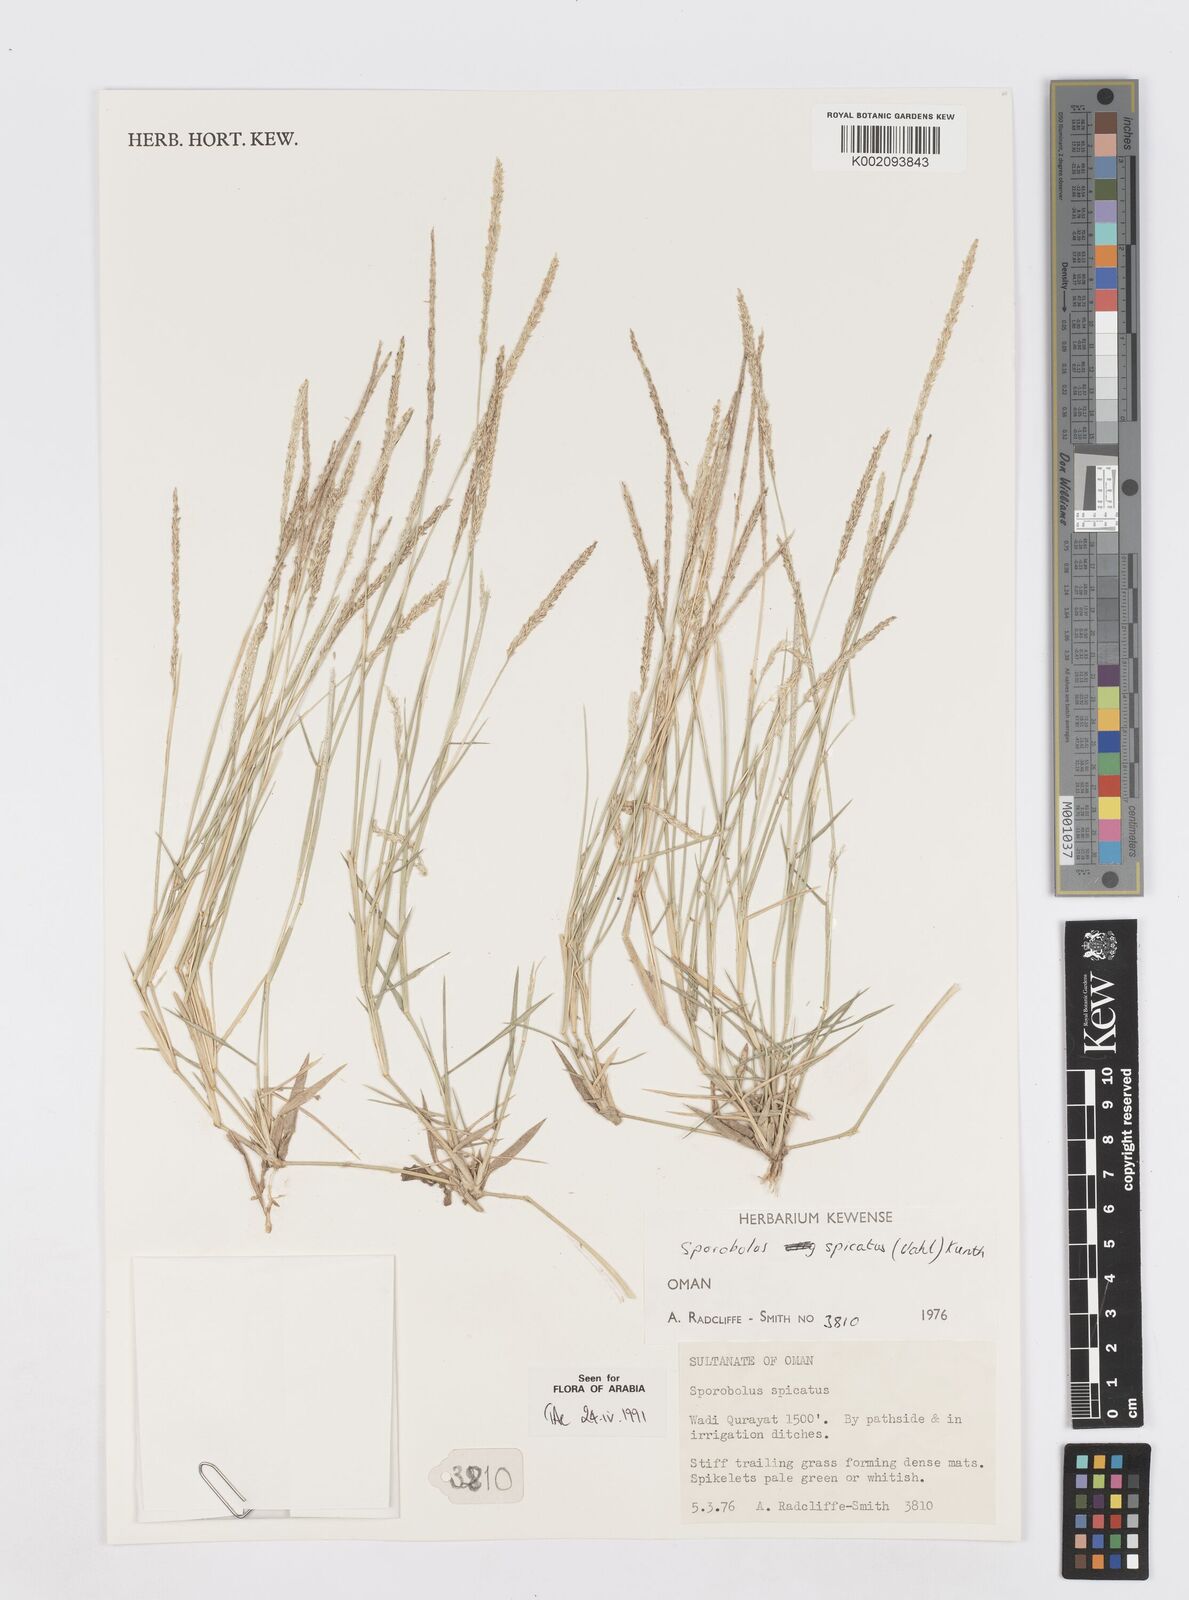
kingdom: Plantae
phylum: Tracheophyta
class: Liliopsida
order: Poales
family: Poaceae
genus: Sporobolus
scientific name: Sporobolus spicatus
